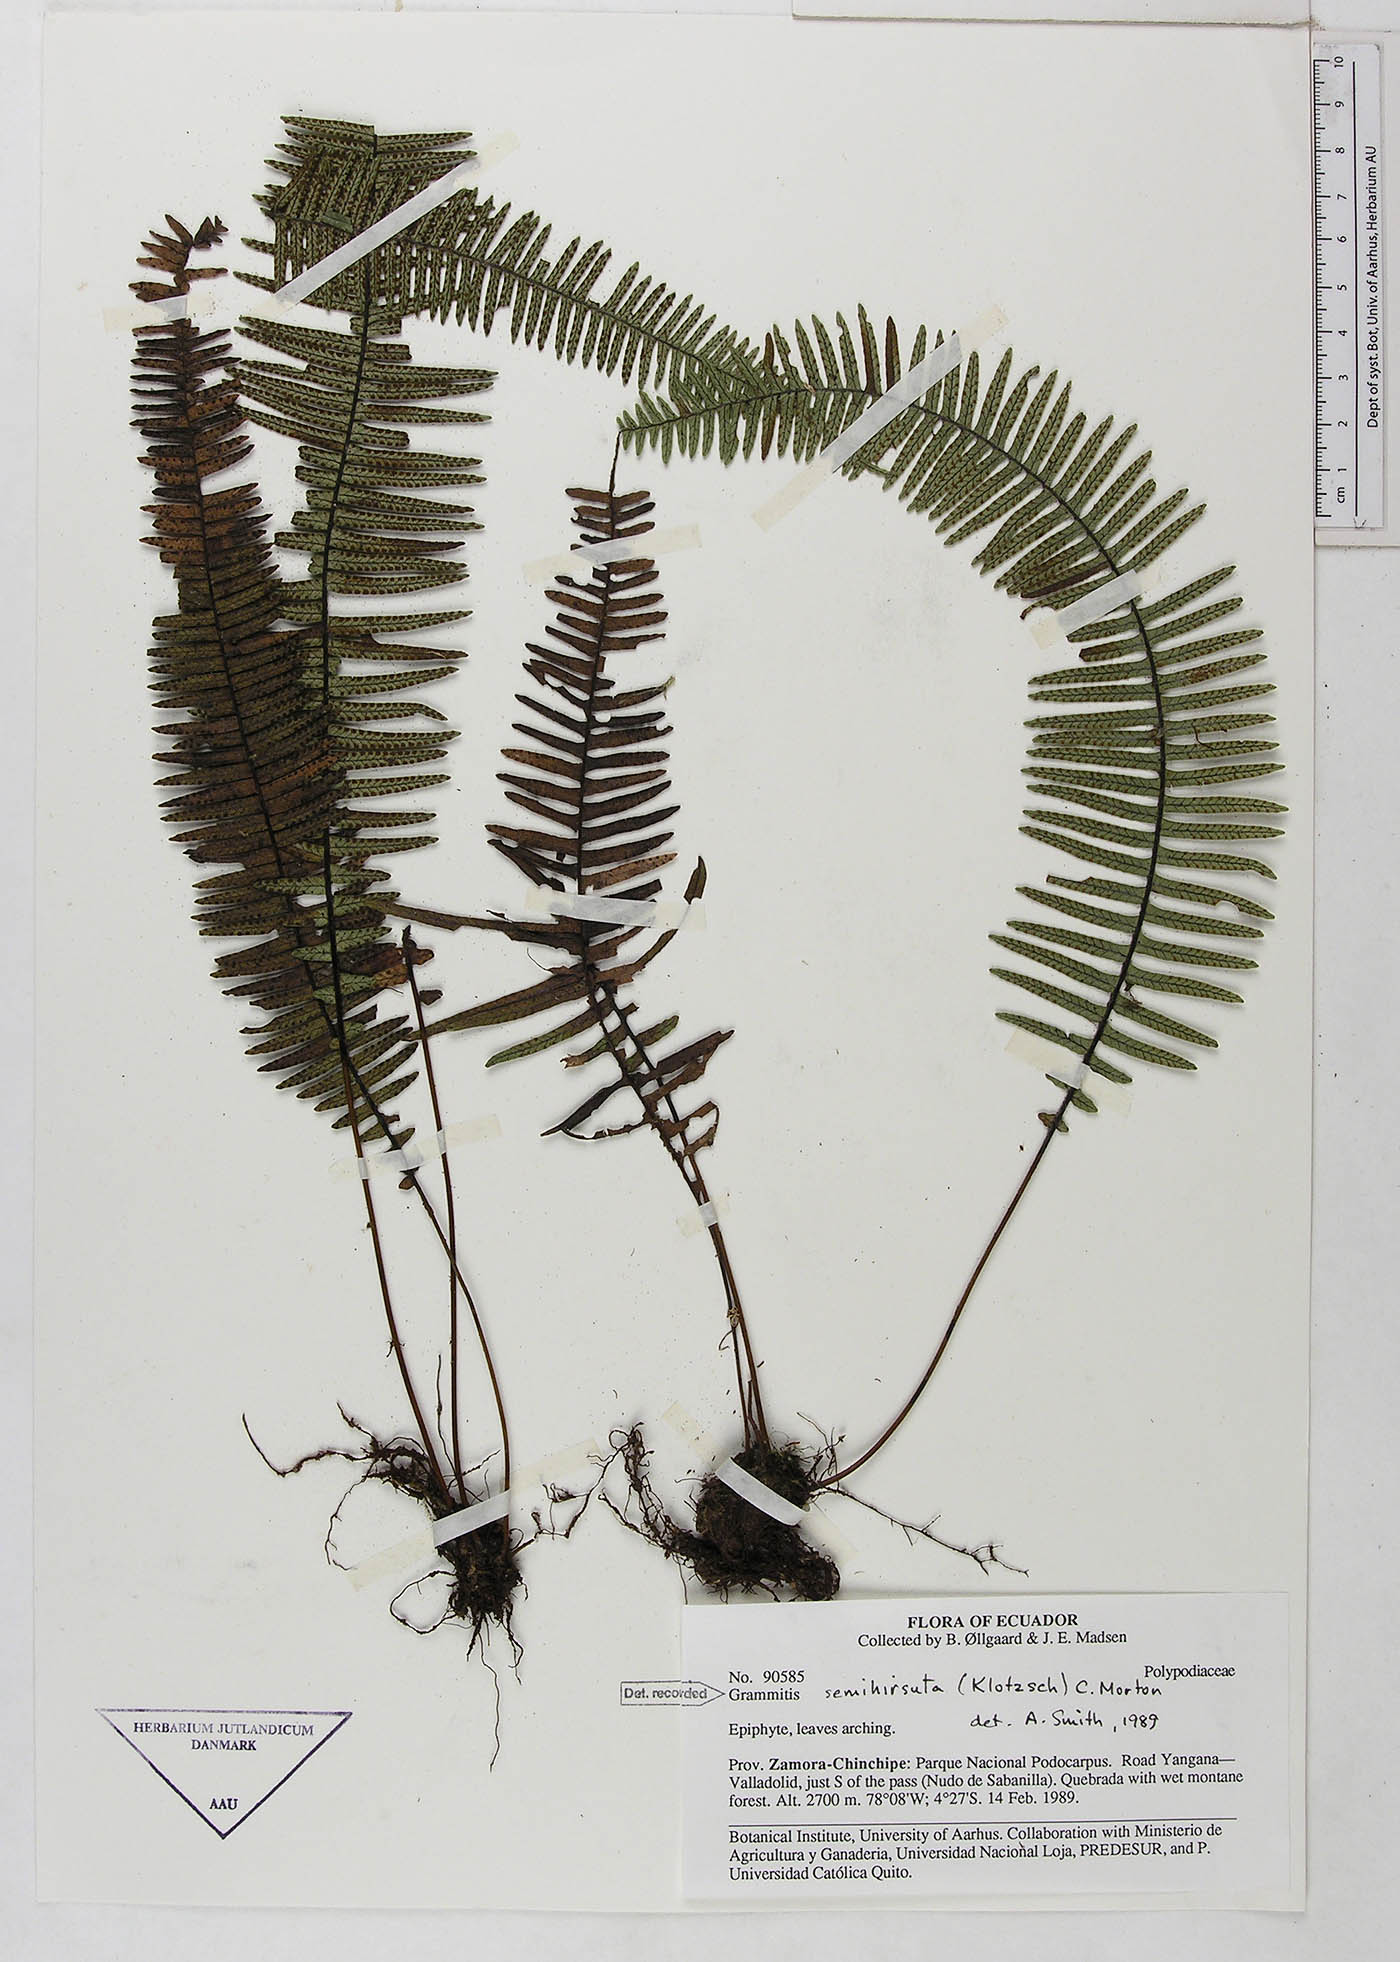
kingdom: Plantae
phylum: Tracheophyta
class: Polypodiopsida
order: Polypodiales
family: Polypodiaceae
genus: Mycopteris
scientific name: Mycopteris semihirsuta
